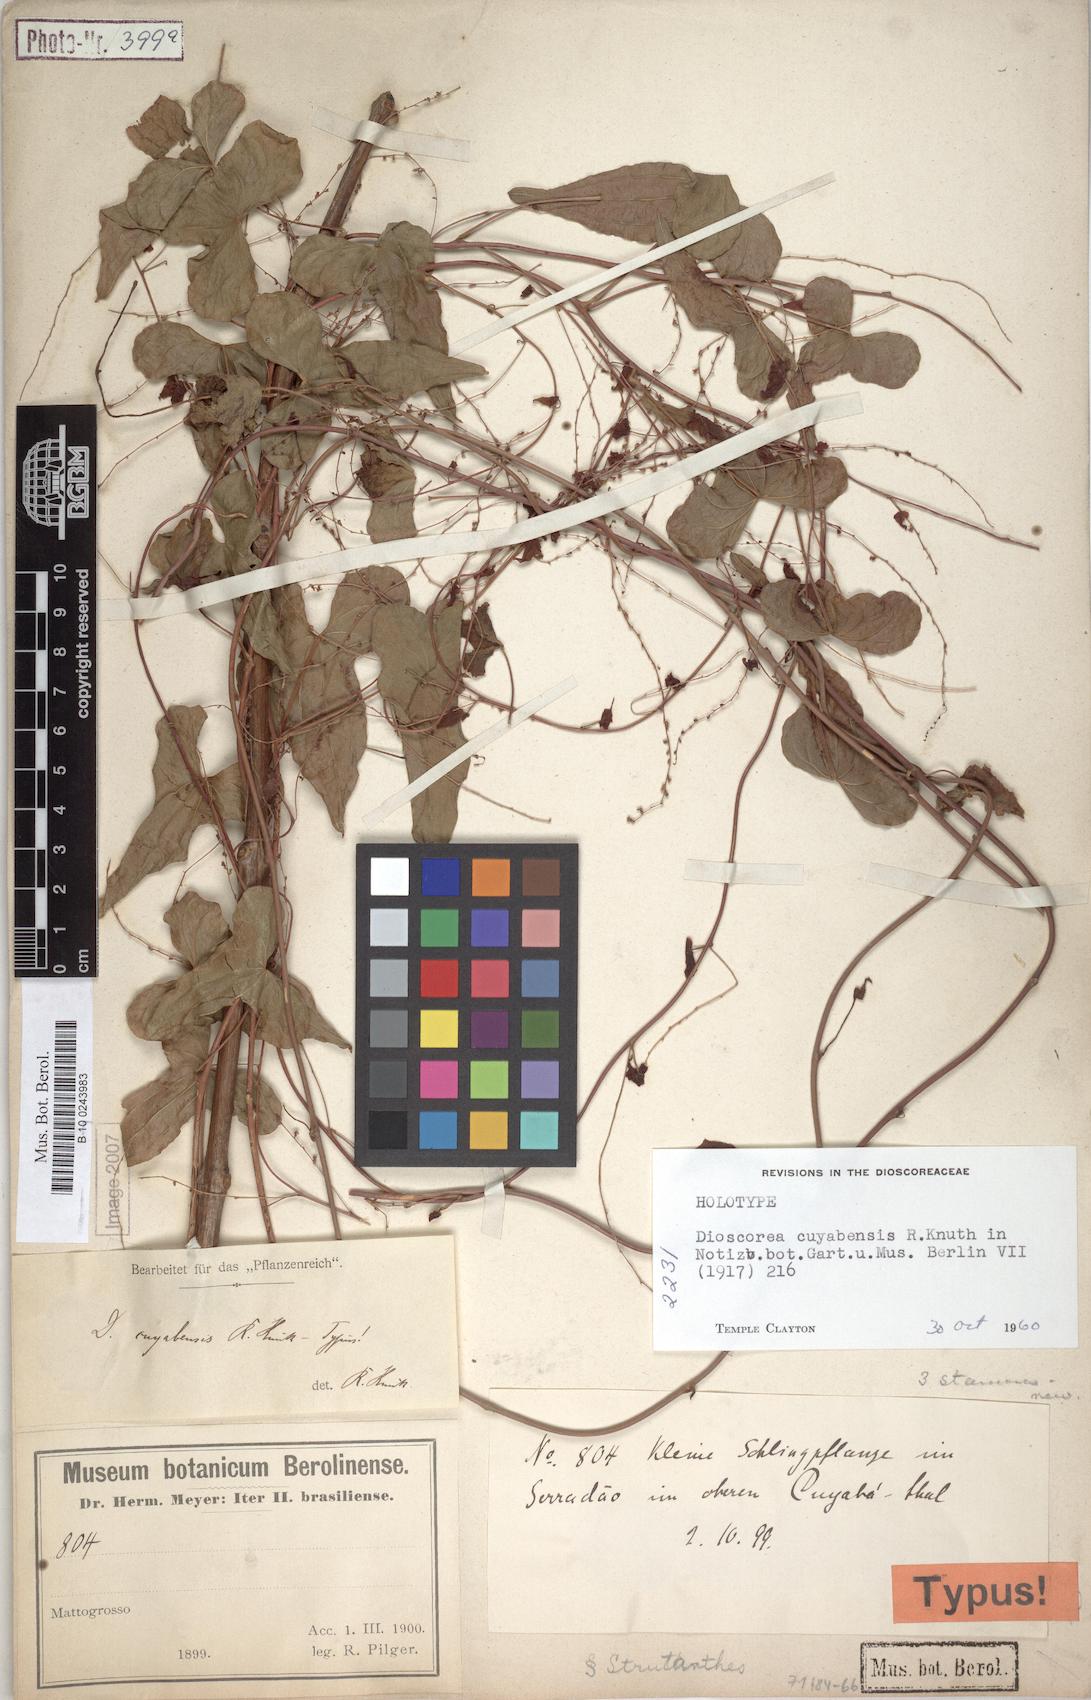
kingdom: Plantae
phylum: Tracheophyta
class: Liliopsida
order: Dioscoreales
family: Dioscoreaceae
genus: Dioscorea
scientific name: Dioscorea cuyabensis
